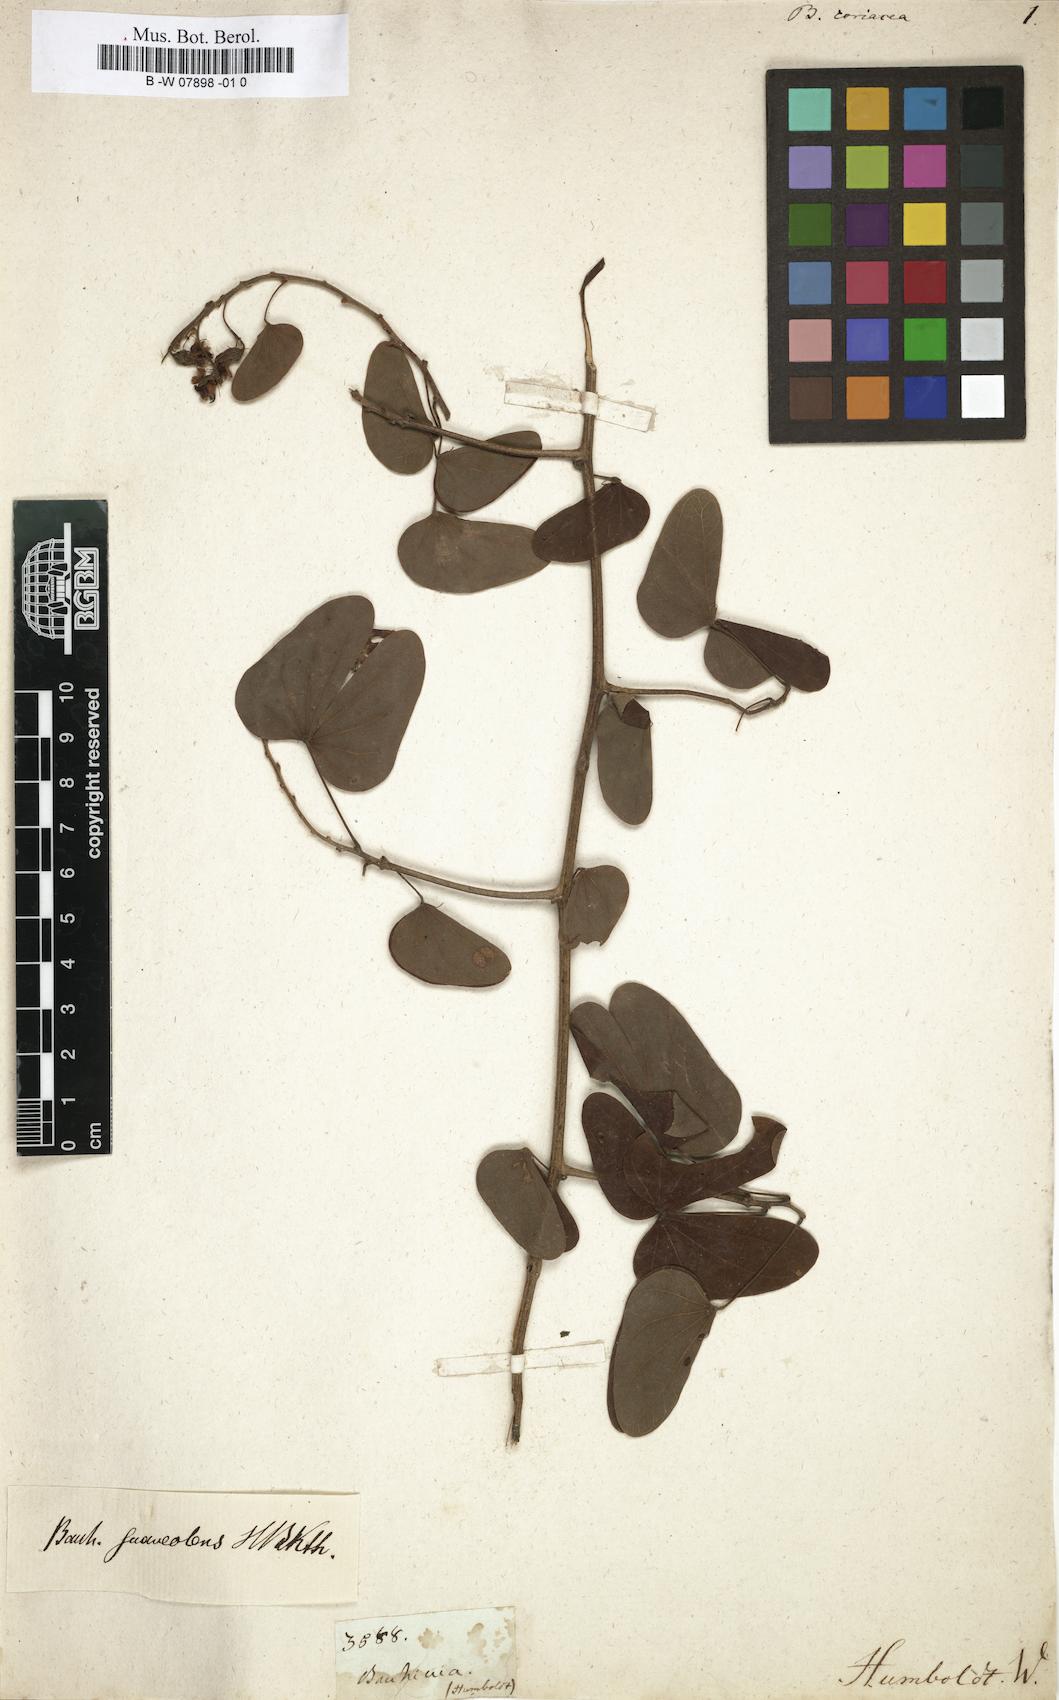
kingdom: Plantae
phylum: Tracheophyta
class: Magnoliopsida
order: Fabales
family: Fabaceae
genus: Bauhinia
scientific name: Bauhinia
